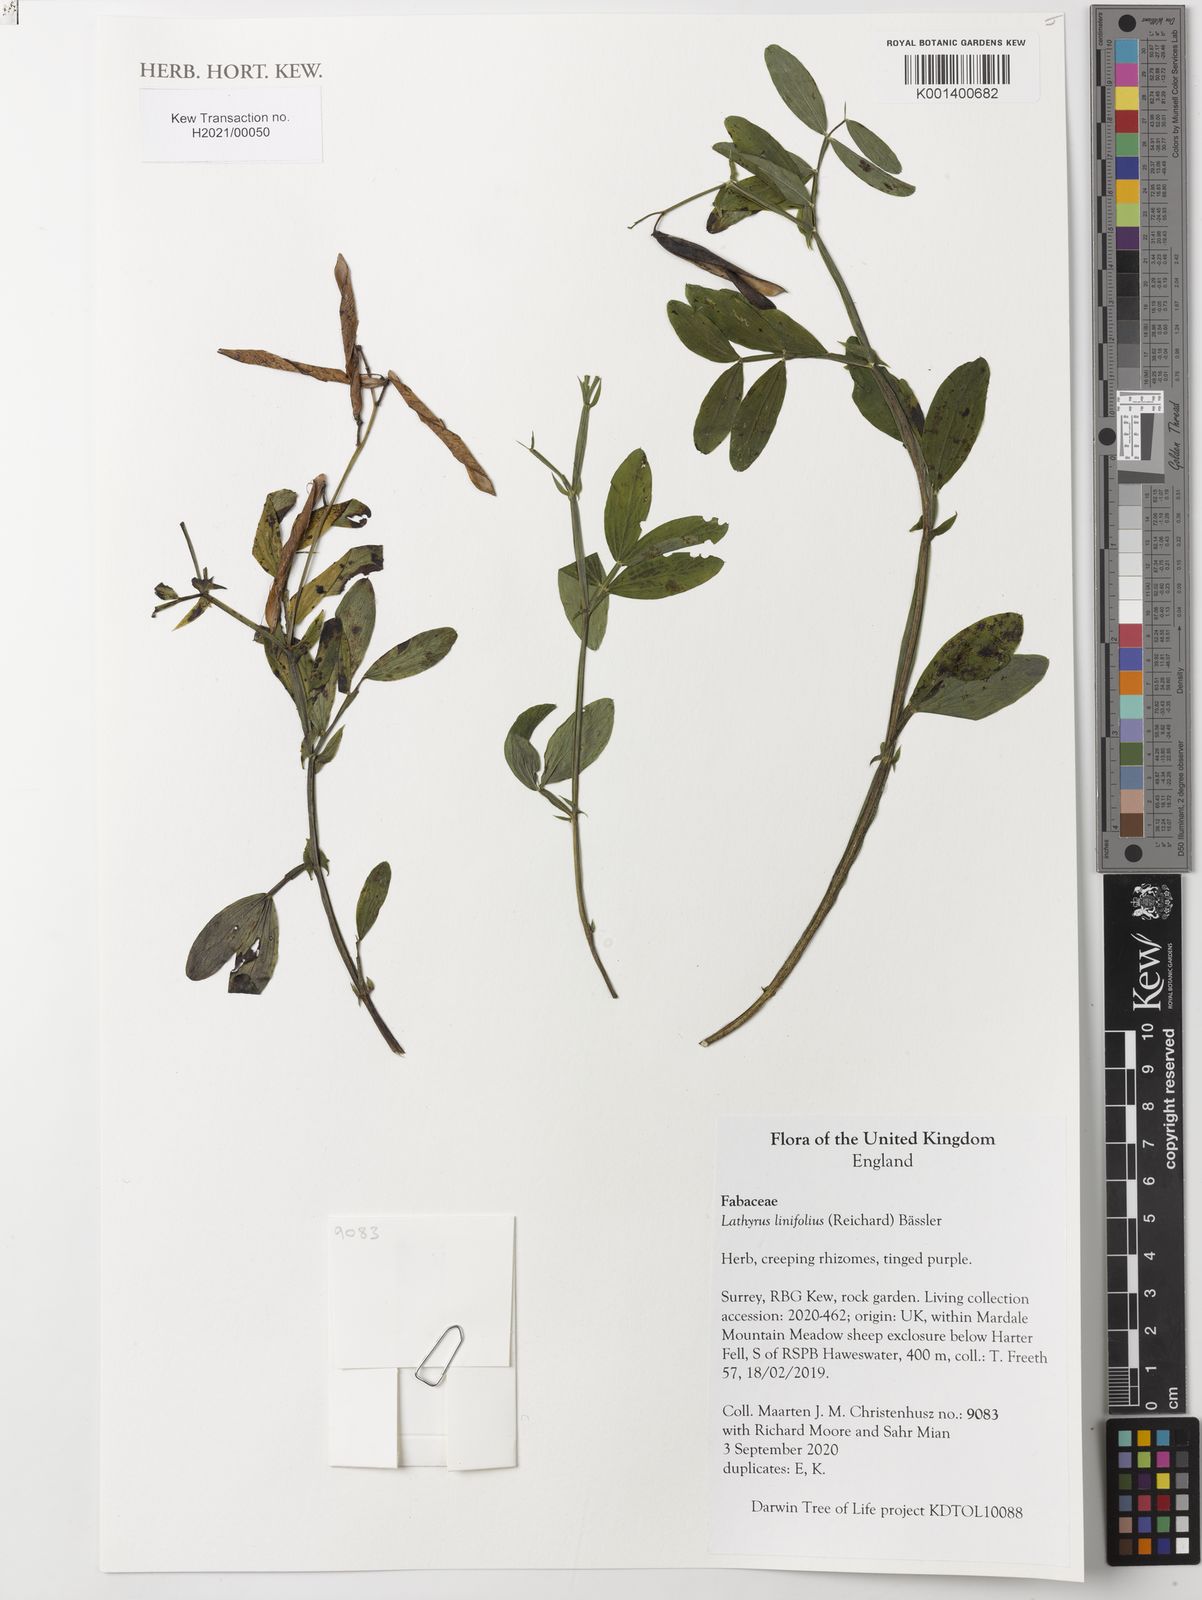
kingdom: Plantae
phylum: Tracheophyta
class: Magnoliopsida
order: Fabales
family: Fabaceae
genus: Lathyrus
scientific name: Lathyrus linifolius
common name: Bitter-vetch
